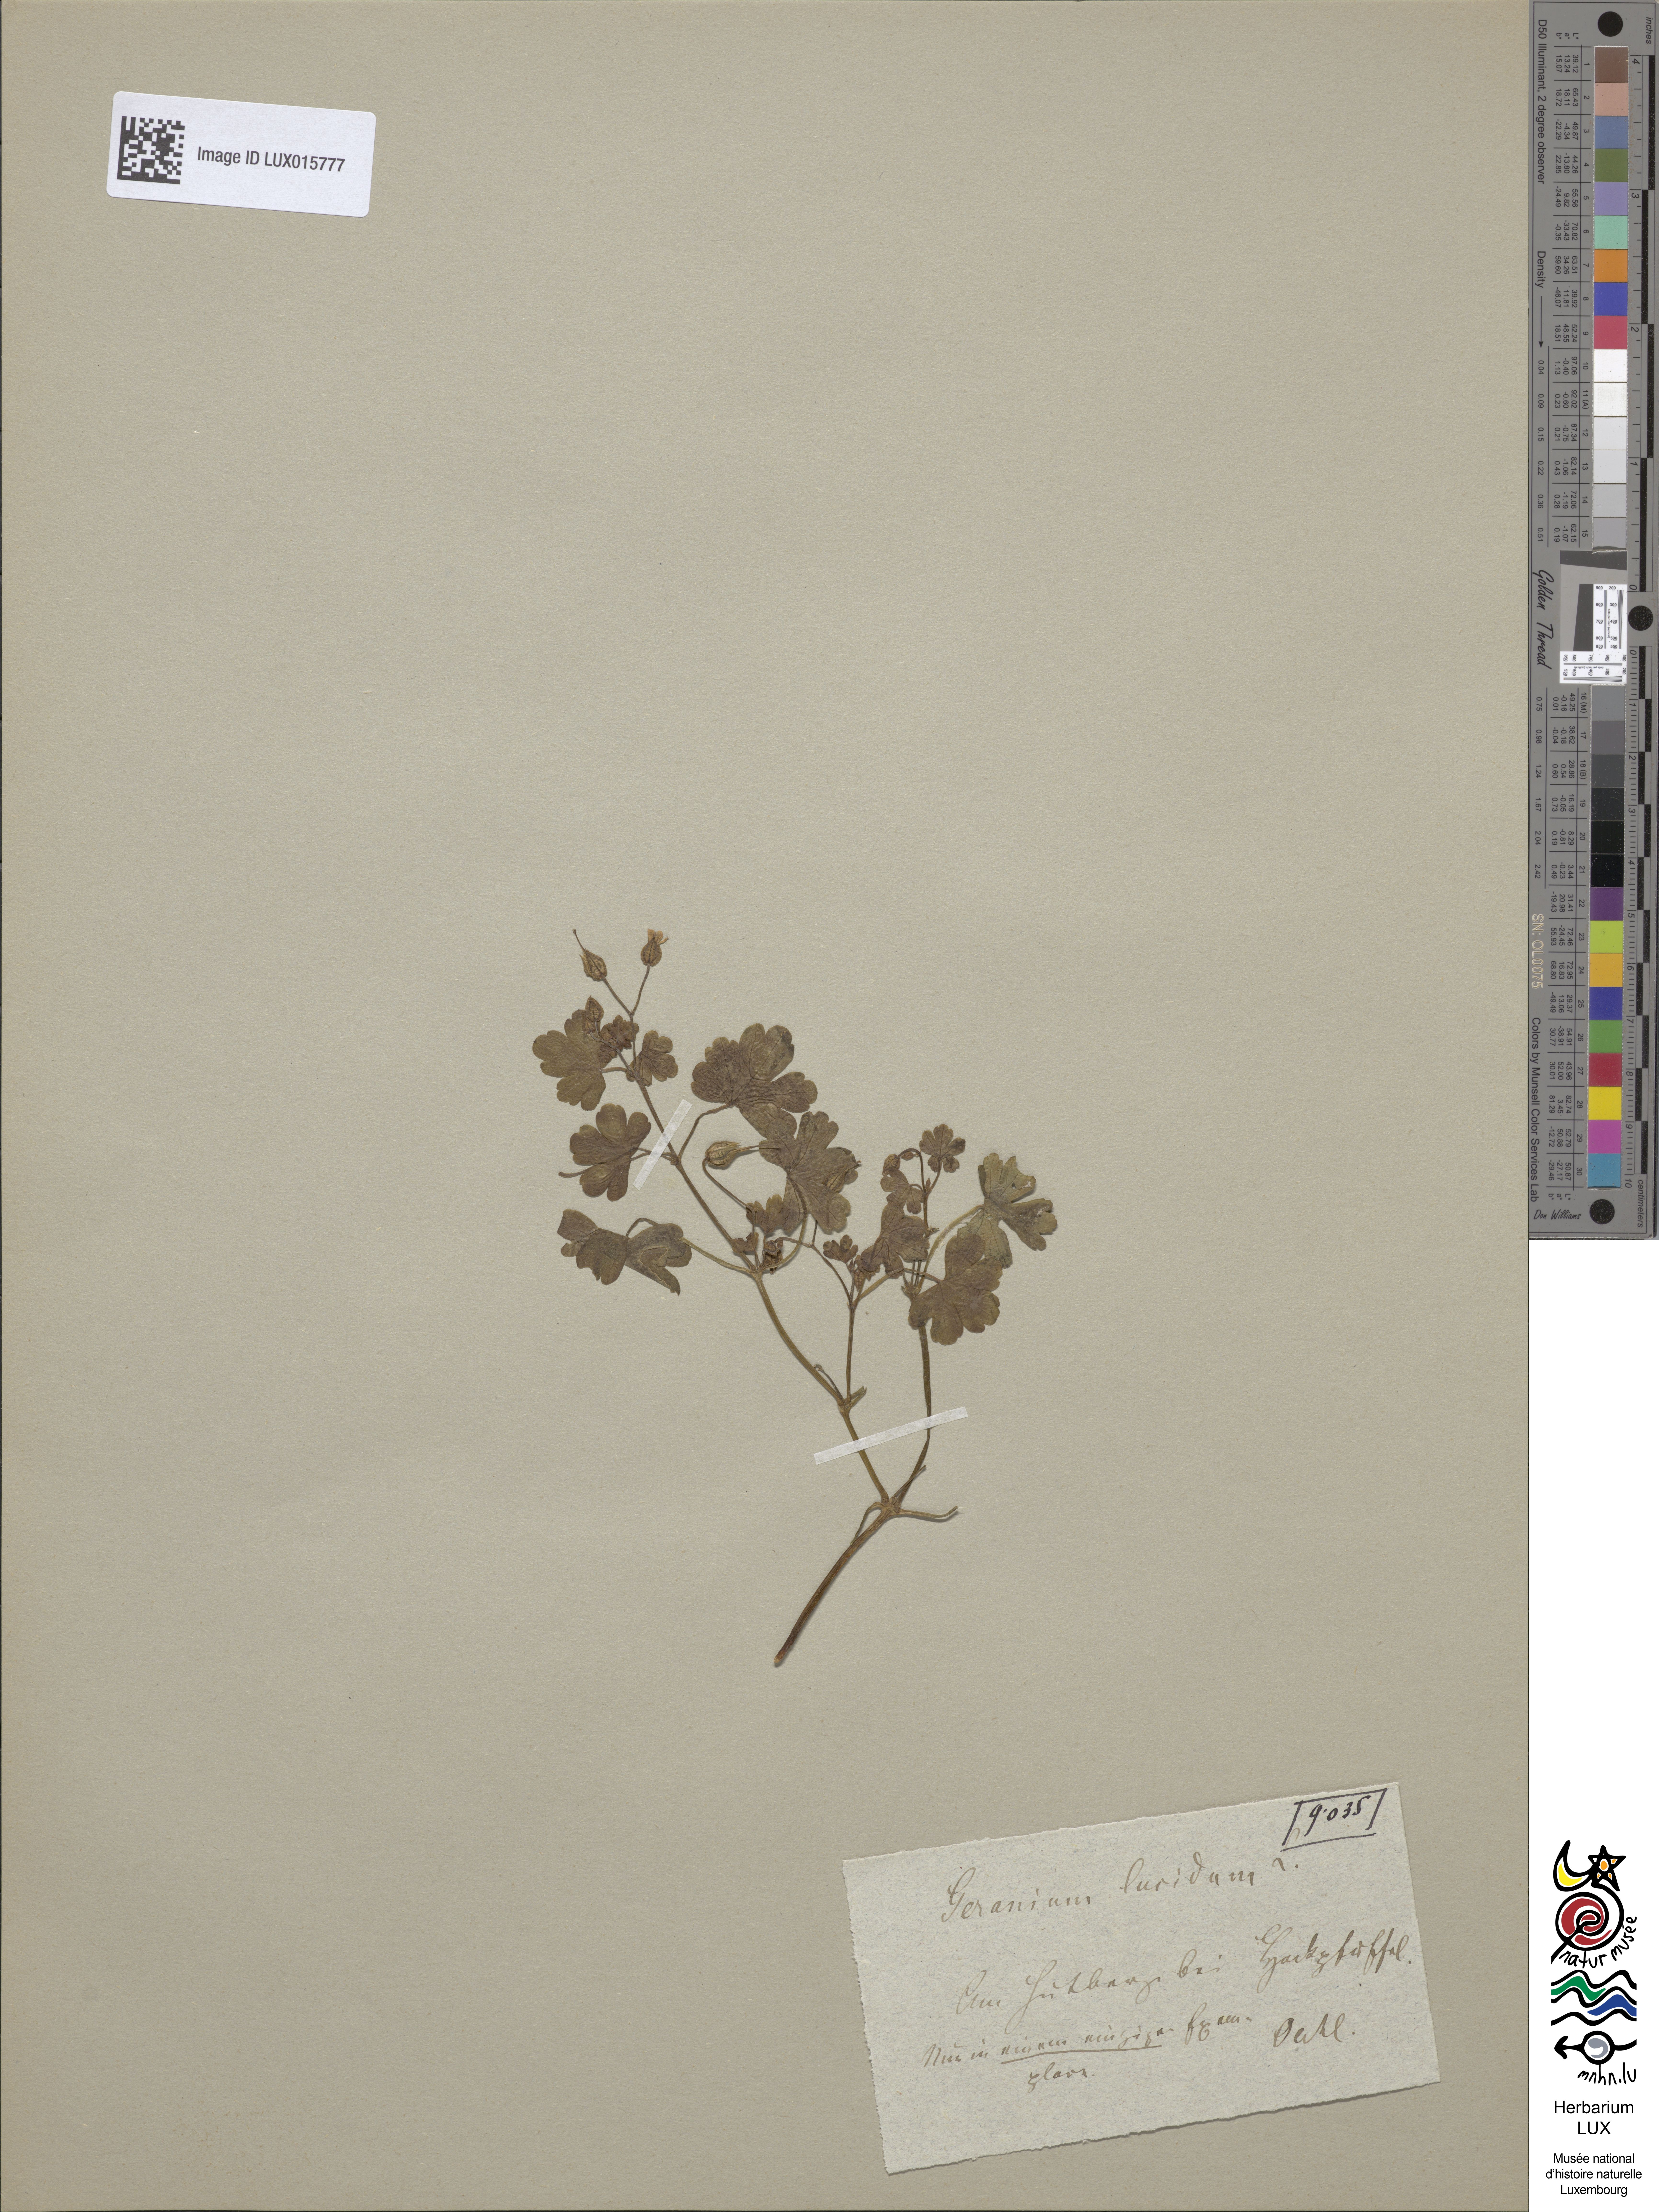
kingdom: Plantae
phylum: Tracheophyta
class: Magnoliopsida
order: Geraniales
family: Geraniaceae
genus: Geranium
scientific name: Geranium lucidum
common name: Shining crane's-bill
